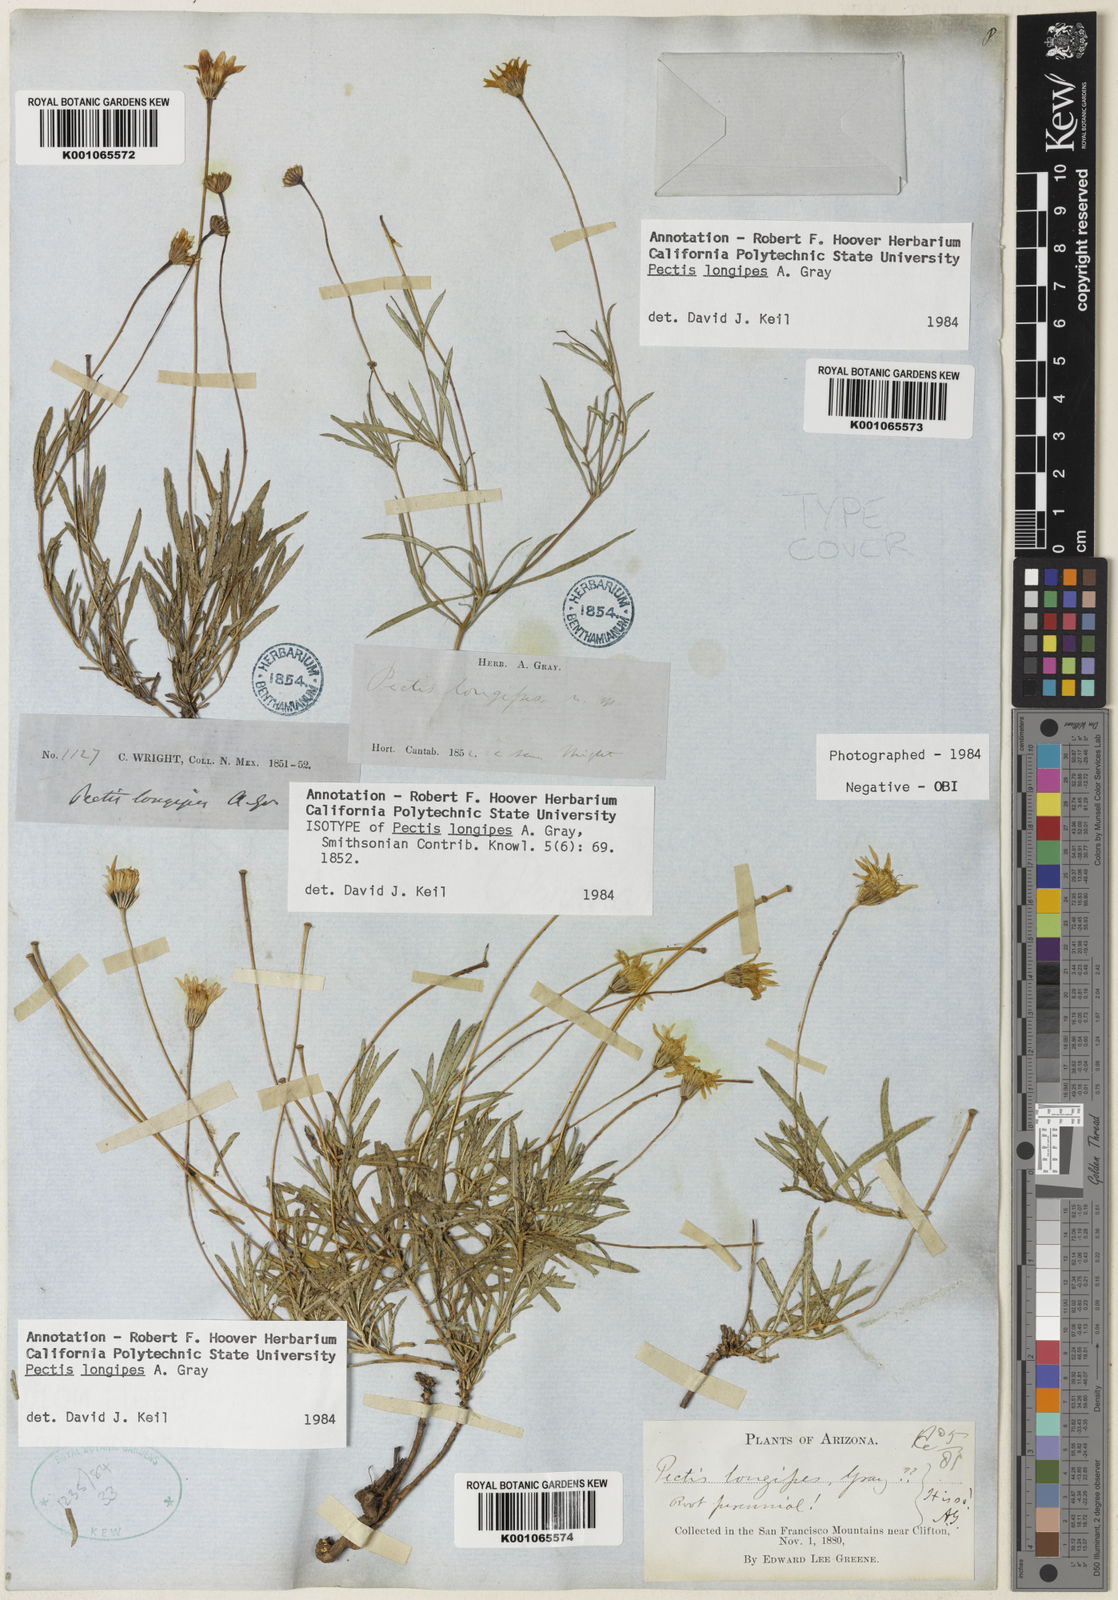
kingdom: Plantae
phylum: Tracheophyta
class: Magnoliopsida
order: Asterales
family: Asteraceae
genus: Pectis
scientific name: Pectis longipes
